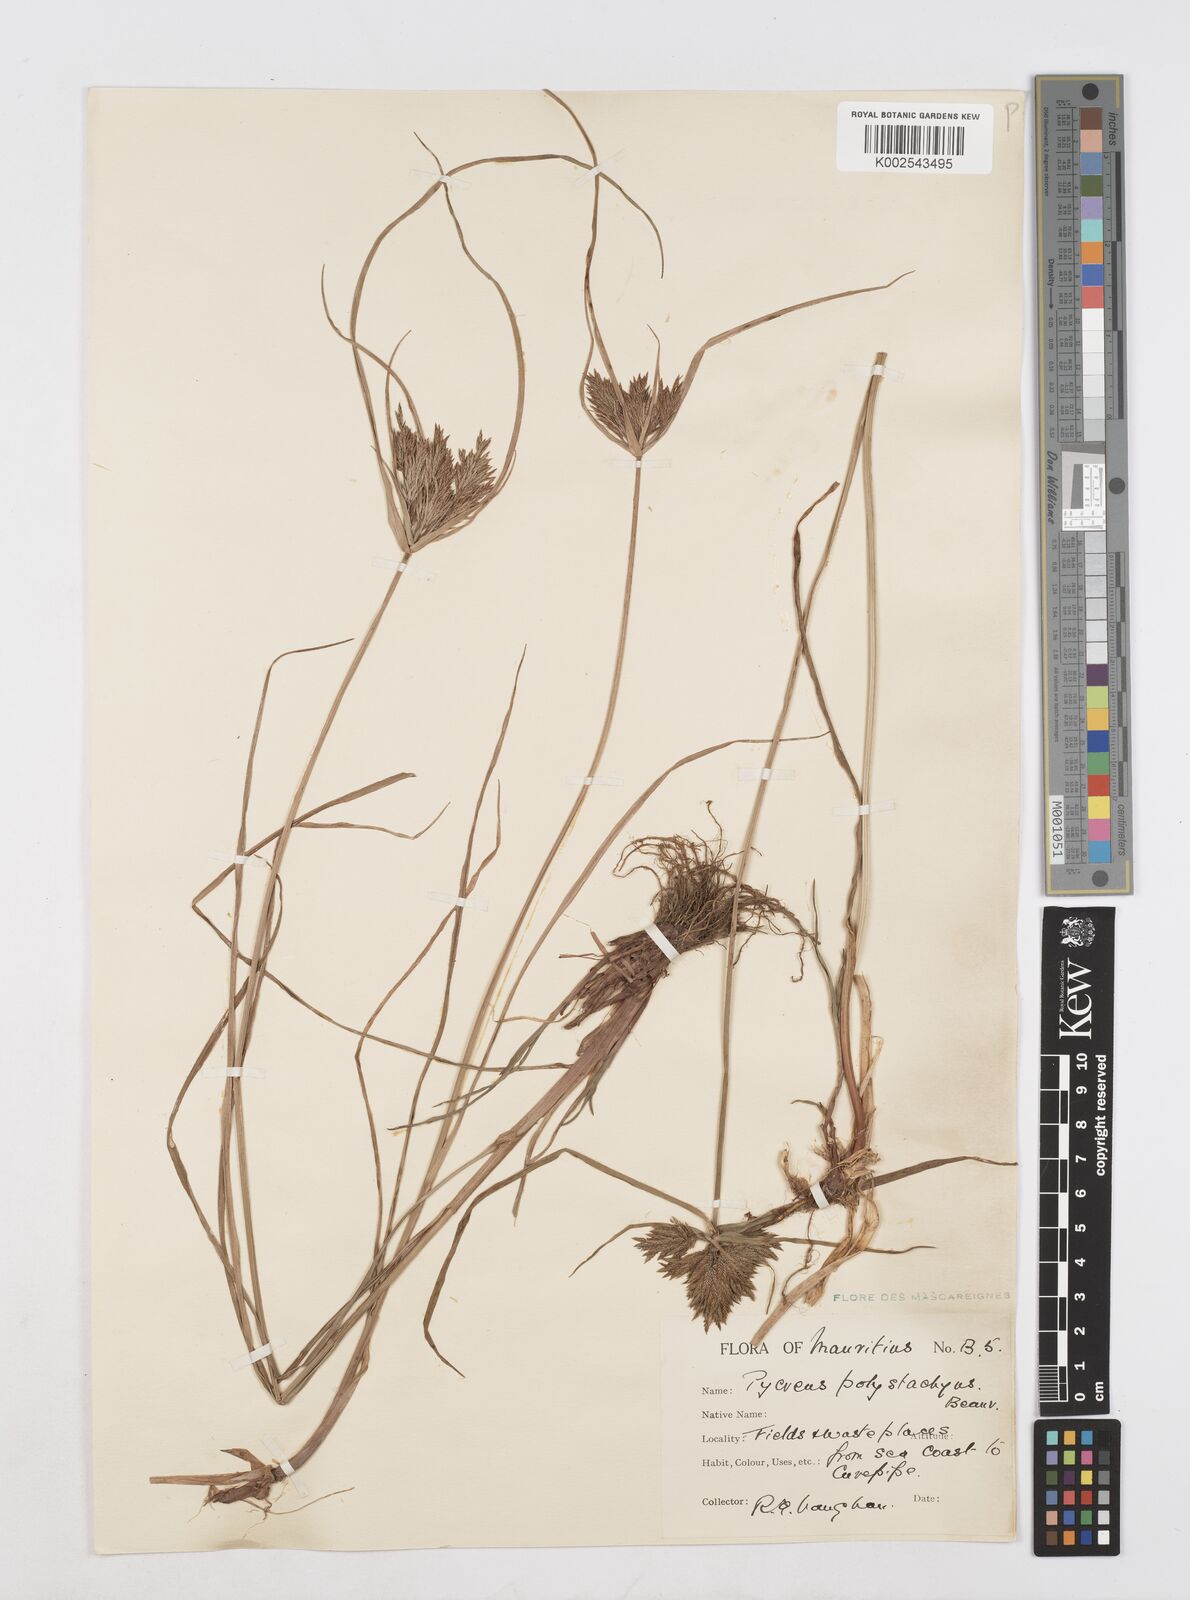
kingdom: Plantae
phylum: Tracheophyta
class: Liliopsida
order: Poales
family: Cyperaceae
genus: Cyperus
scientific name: Cyperus polystachyos
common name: Bunchy flat sedge
